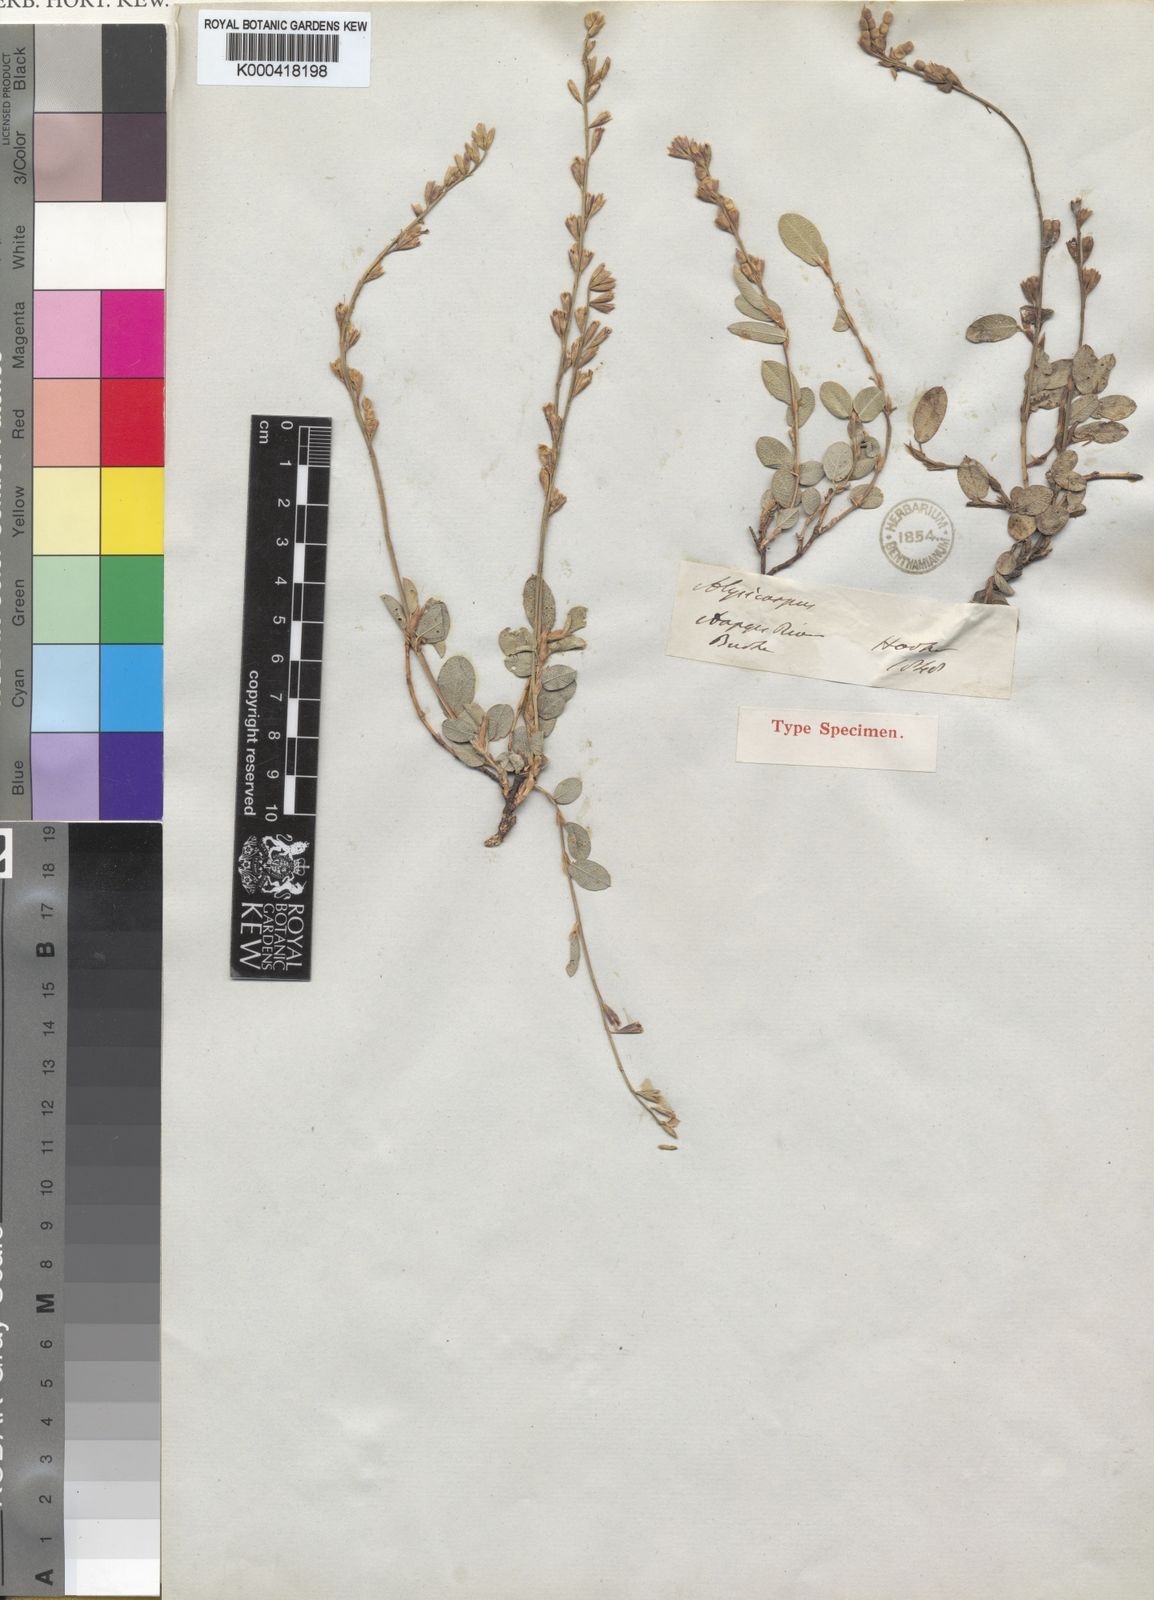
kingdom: Plantae
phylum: Tracheophyta
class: Magnoliopsida
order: Fabales
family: Fabaceae
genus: Alysicarpus
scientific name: Alysicarpus zeyheri
